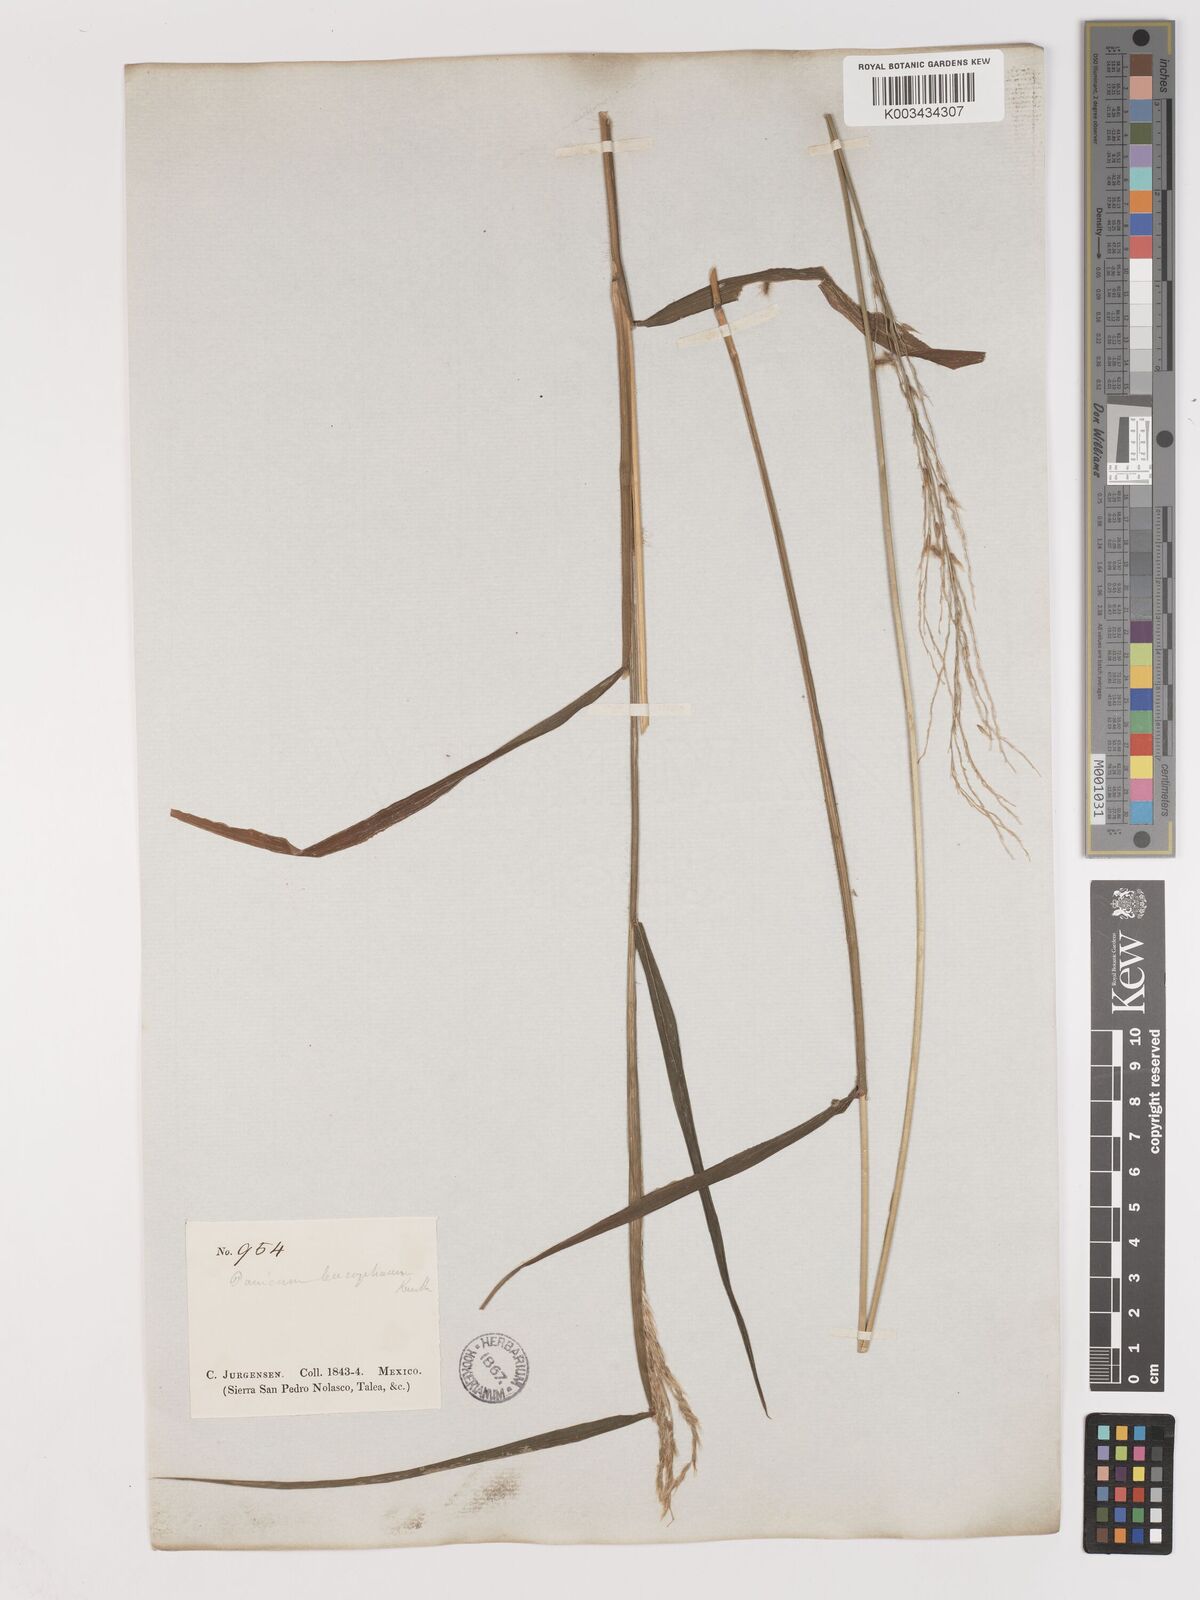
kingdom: Plantae
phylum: Tracheophyta
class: Liliopsida
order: Poales
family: Poaceae
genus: Digitaria
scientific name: Digitaria insularis
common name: Sourgrass
